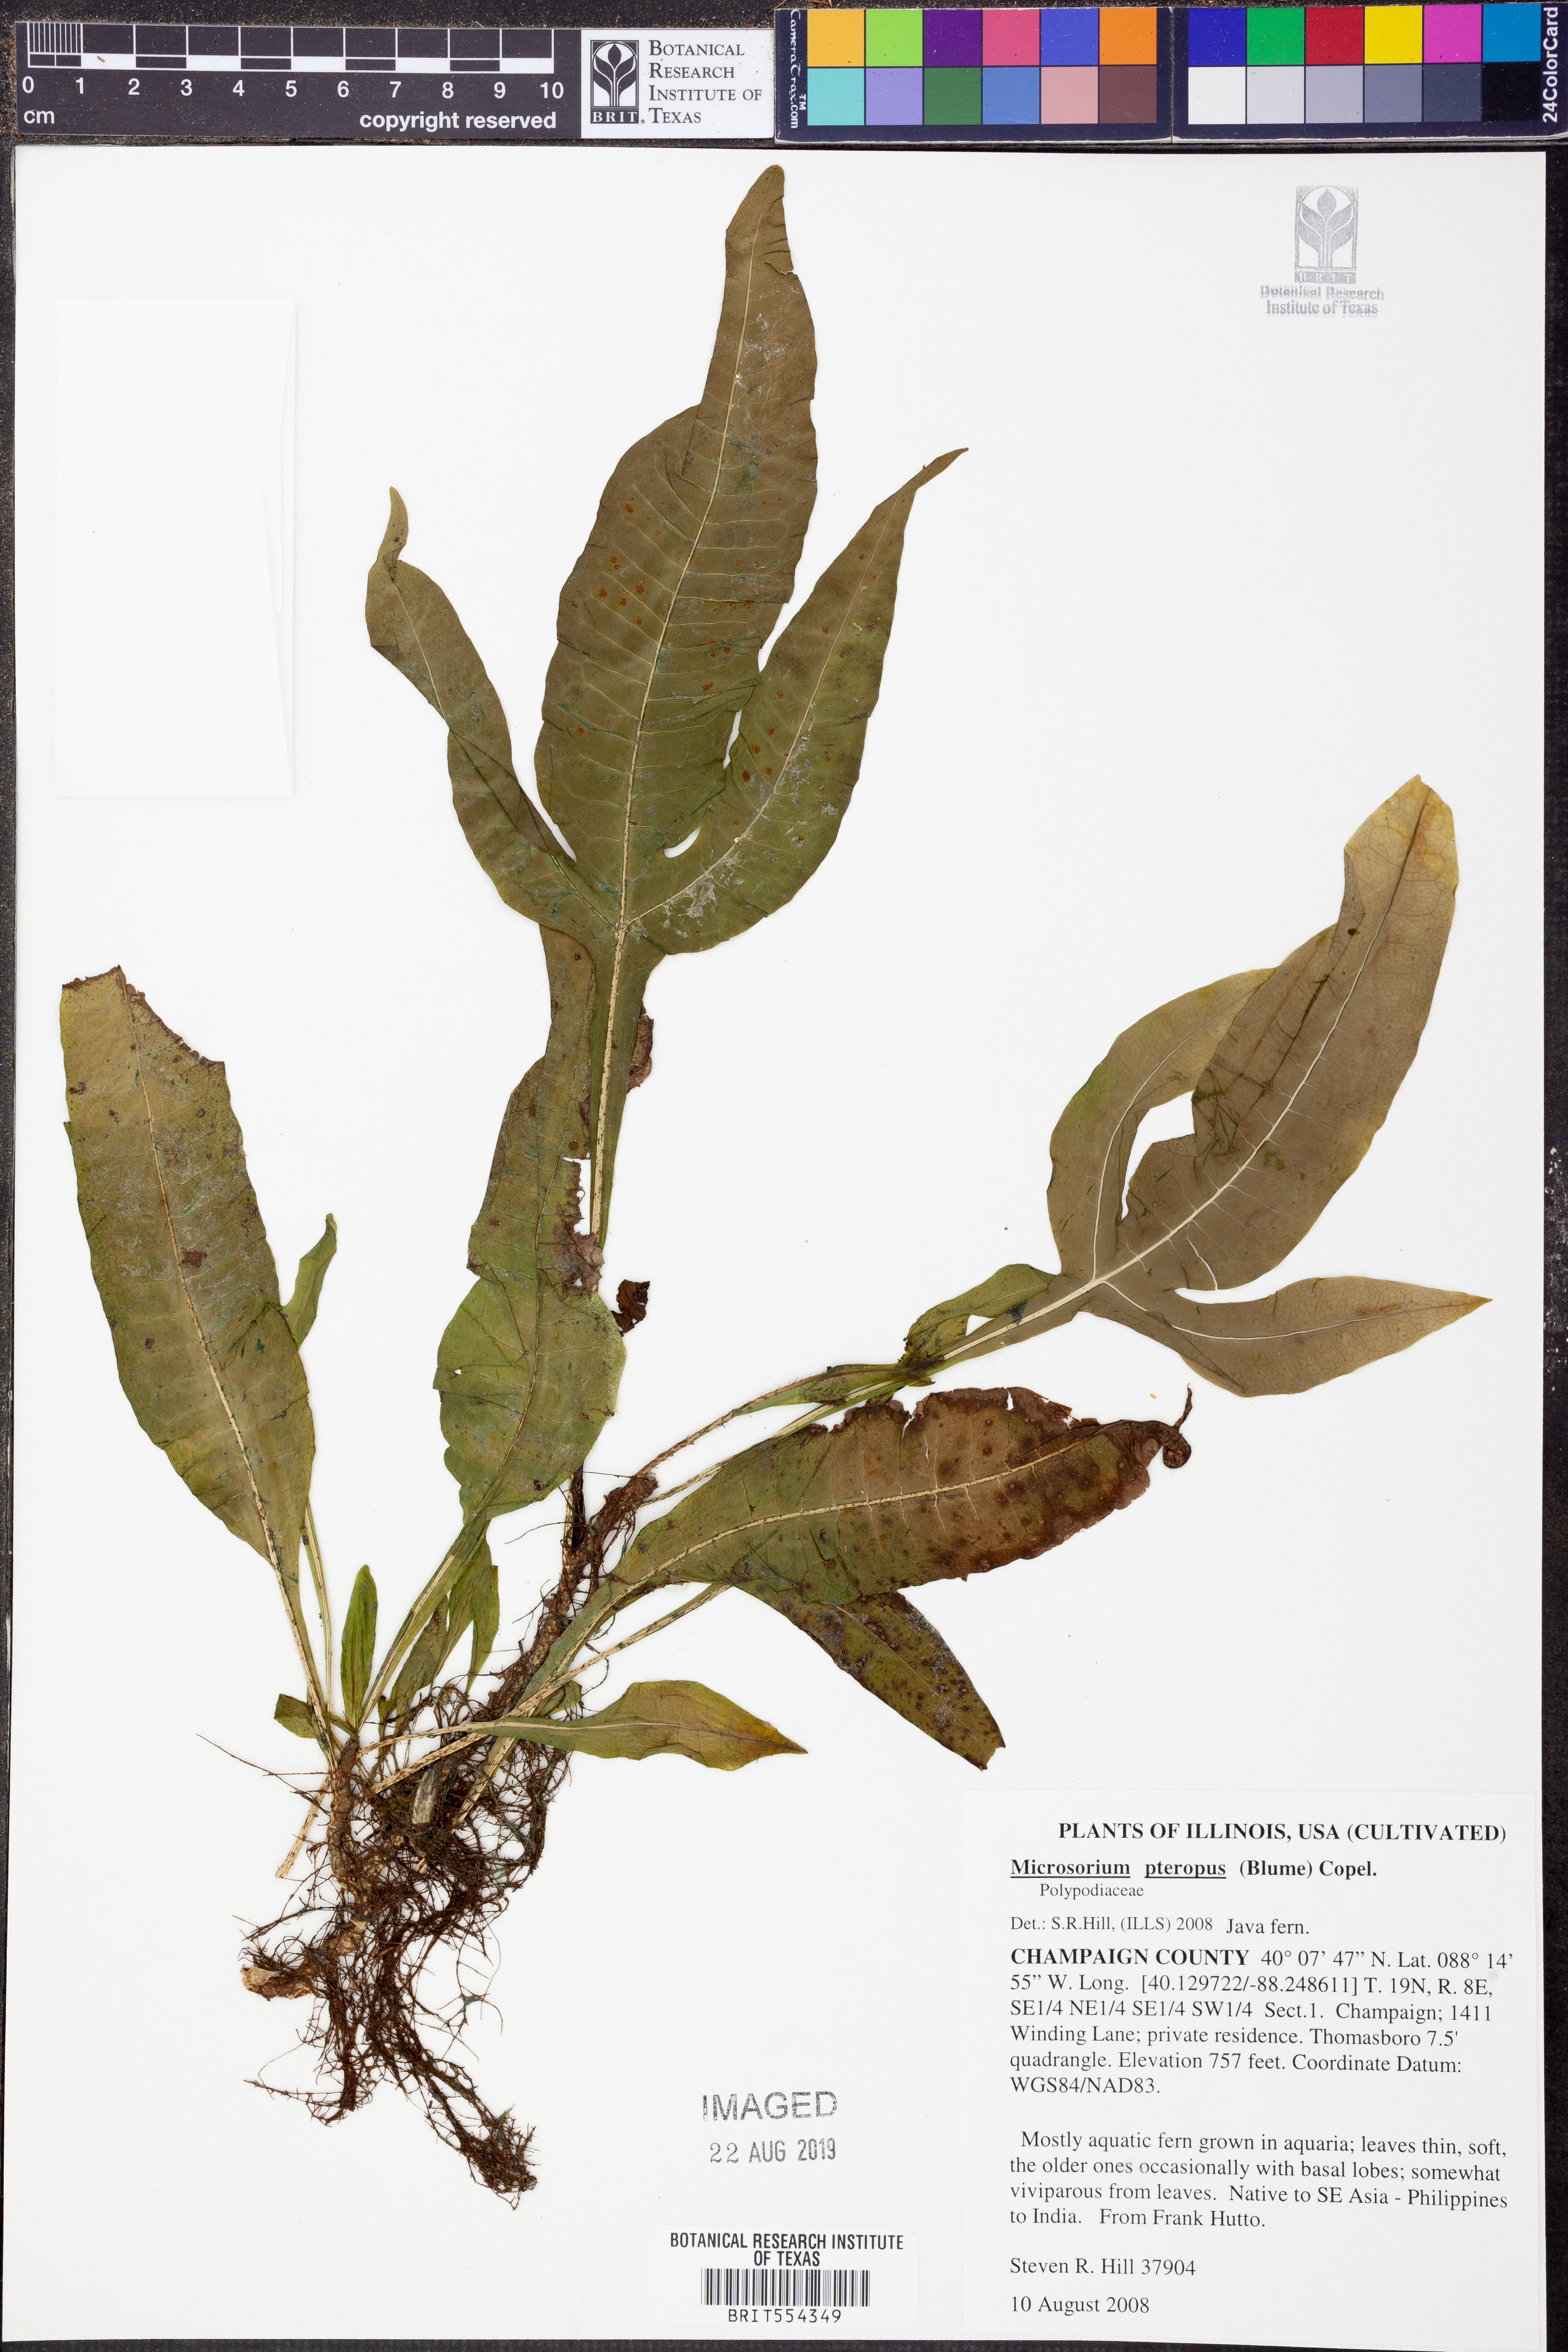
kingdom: Plantae
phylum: Tracheophyta
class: Polypodiopsida
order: Polypodiales
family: Polypodiaceae
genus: Leptochilus
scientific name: Leptochilus pteropus
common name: Java fern
